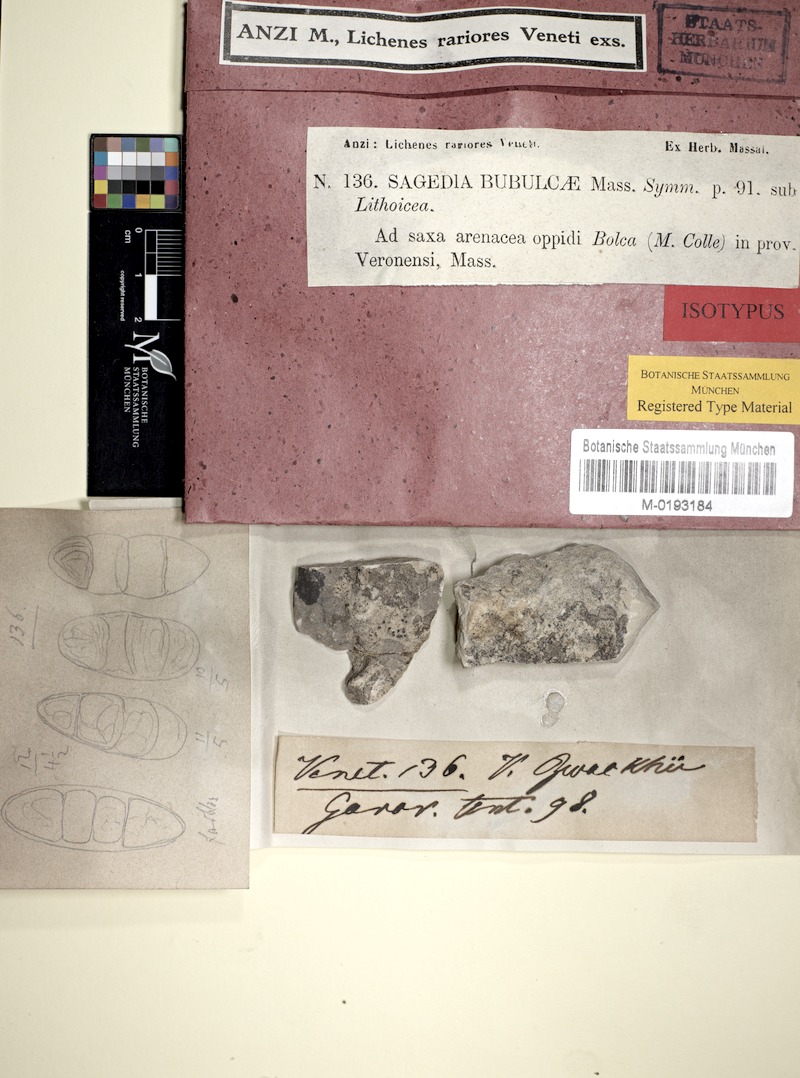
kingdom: Fungi
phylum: Ascomycota
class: Eurotiomycetes
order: Verrucariales
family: Verrucariaceae
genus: Thelidium
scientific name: Thelidium zwackhii
